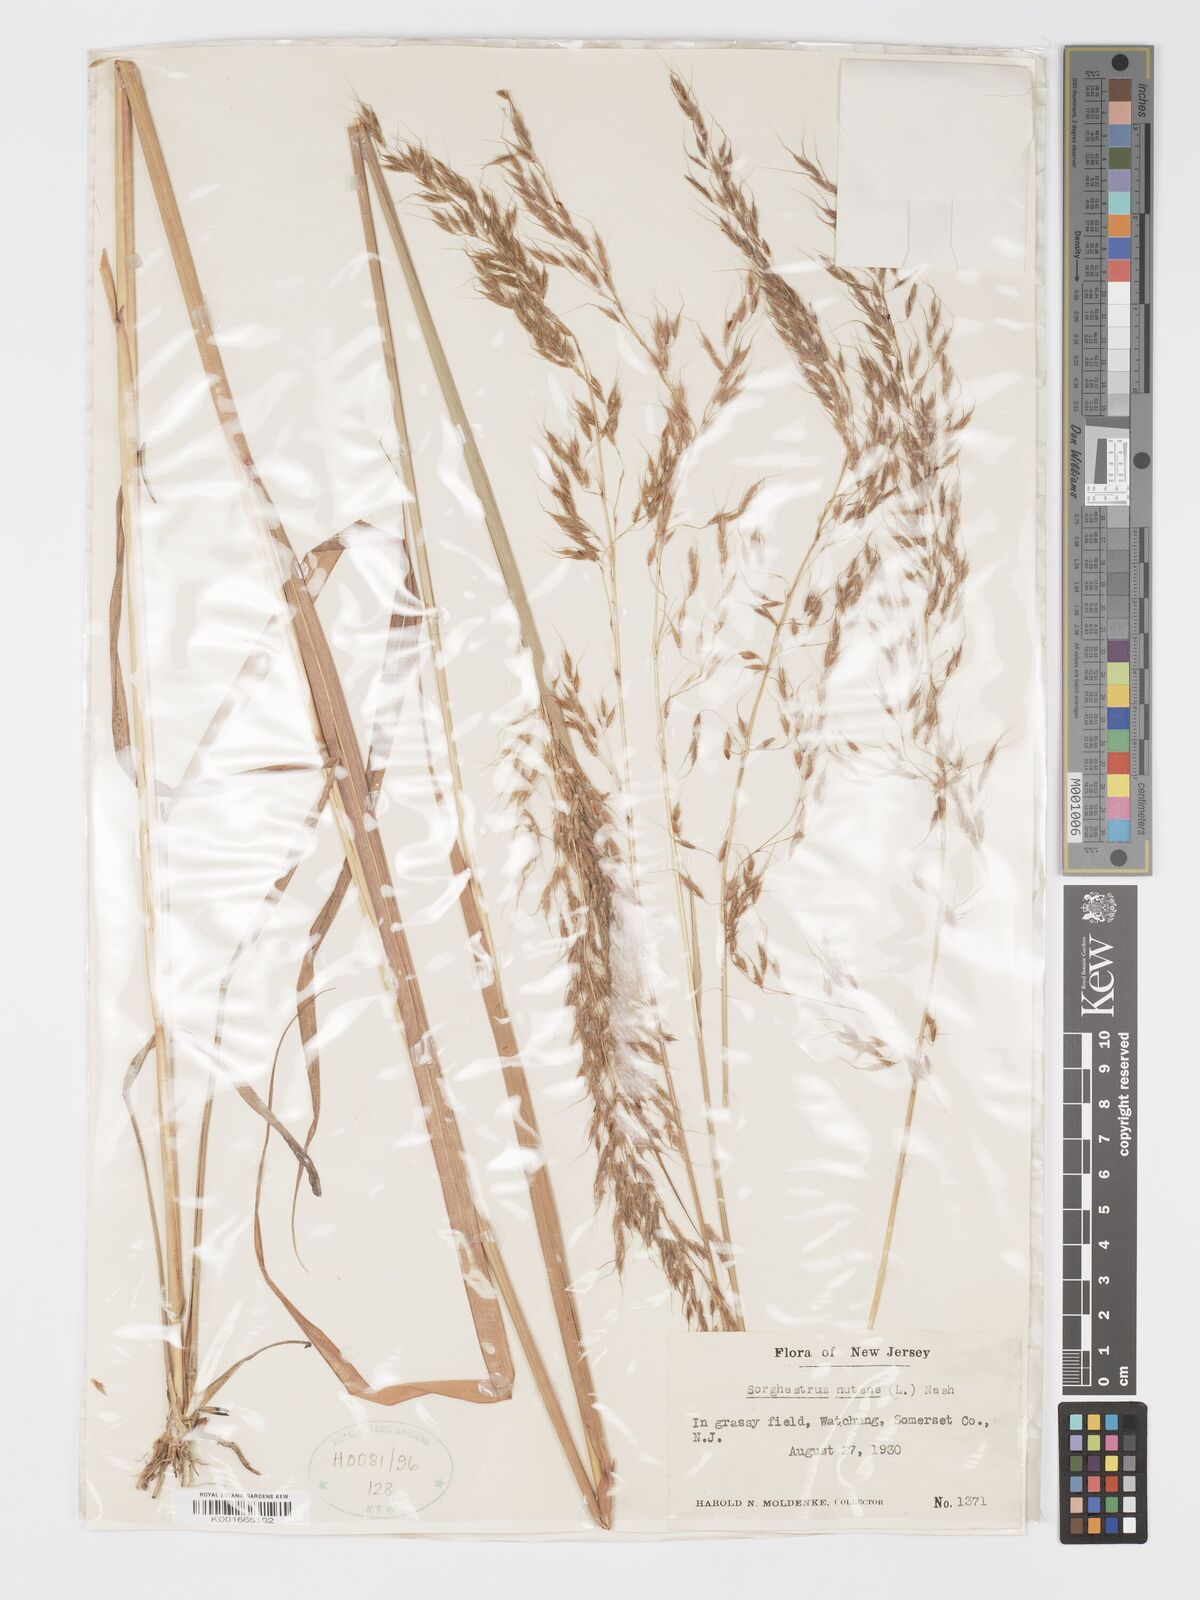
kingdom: Plantae
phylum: Tracheophyta
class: Liliopsida
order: Poales
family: Poaceae
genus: Sorghastrum
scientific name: Sorghastrum nutans
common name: Indian grass
